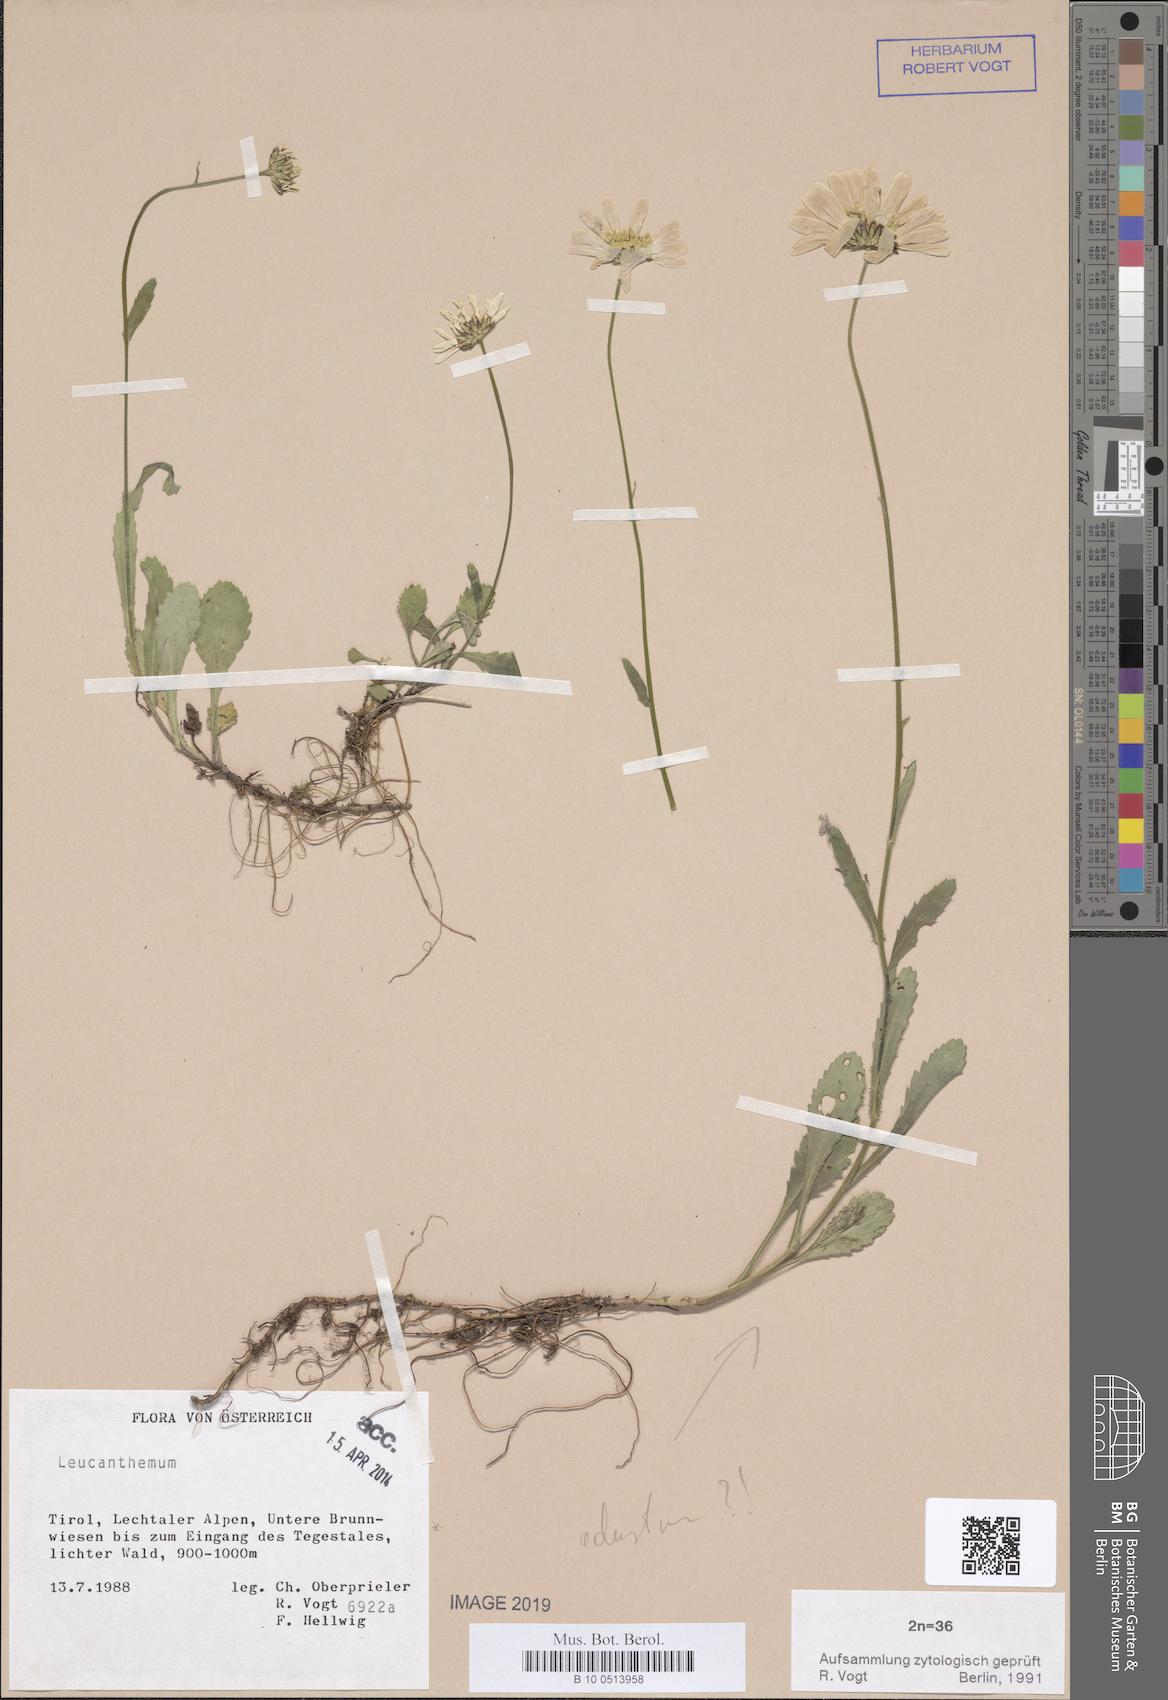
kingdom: Plantae
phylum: Tracheophyta
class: Magnoliopsida
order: Asterales
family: Asteraceae
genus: Leucanthemum
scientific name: Leucanthemum ircutianum
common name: Daisy
